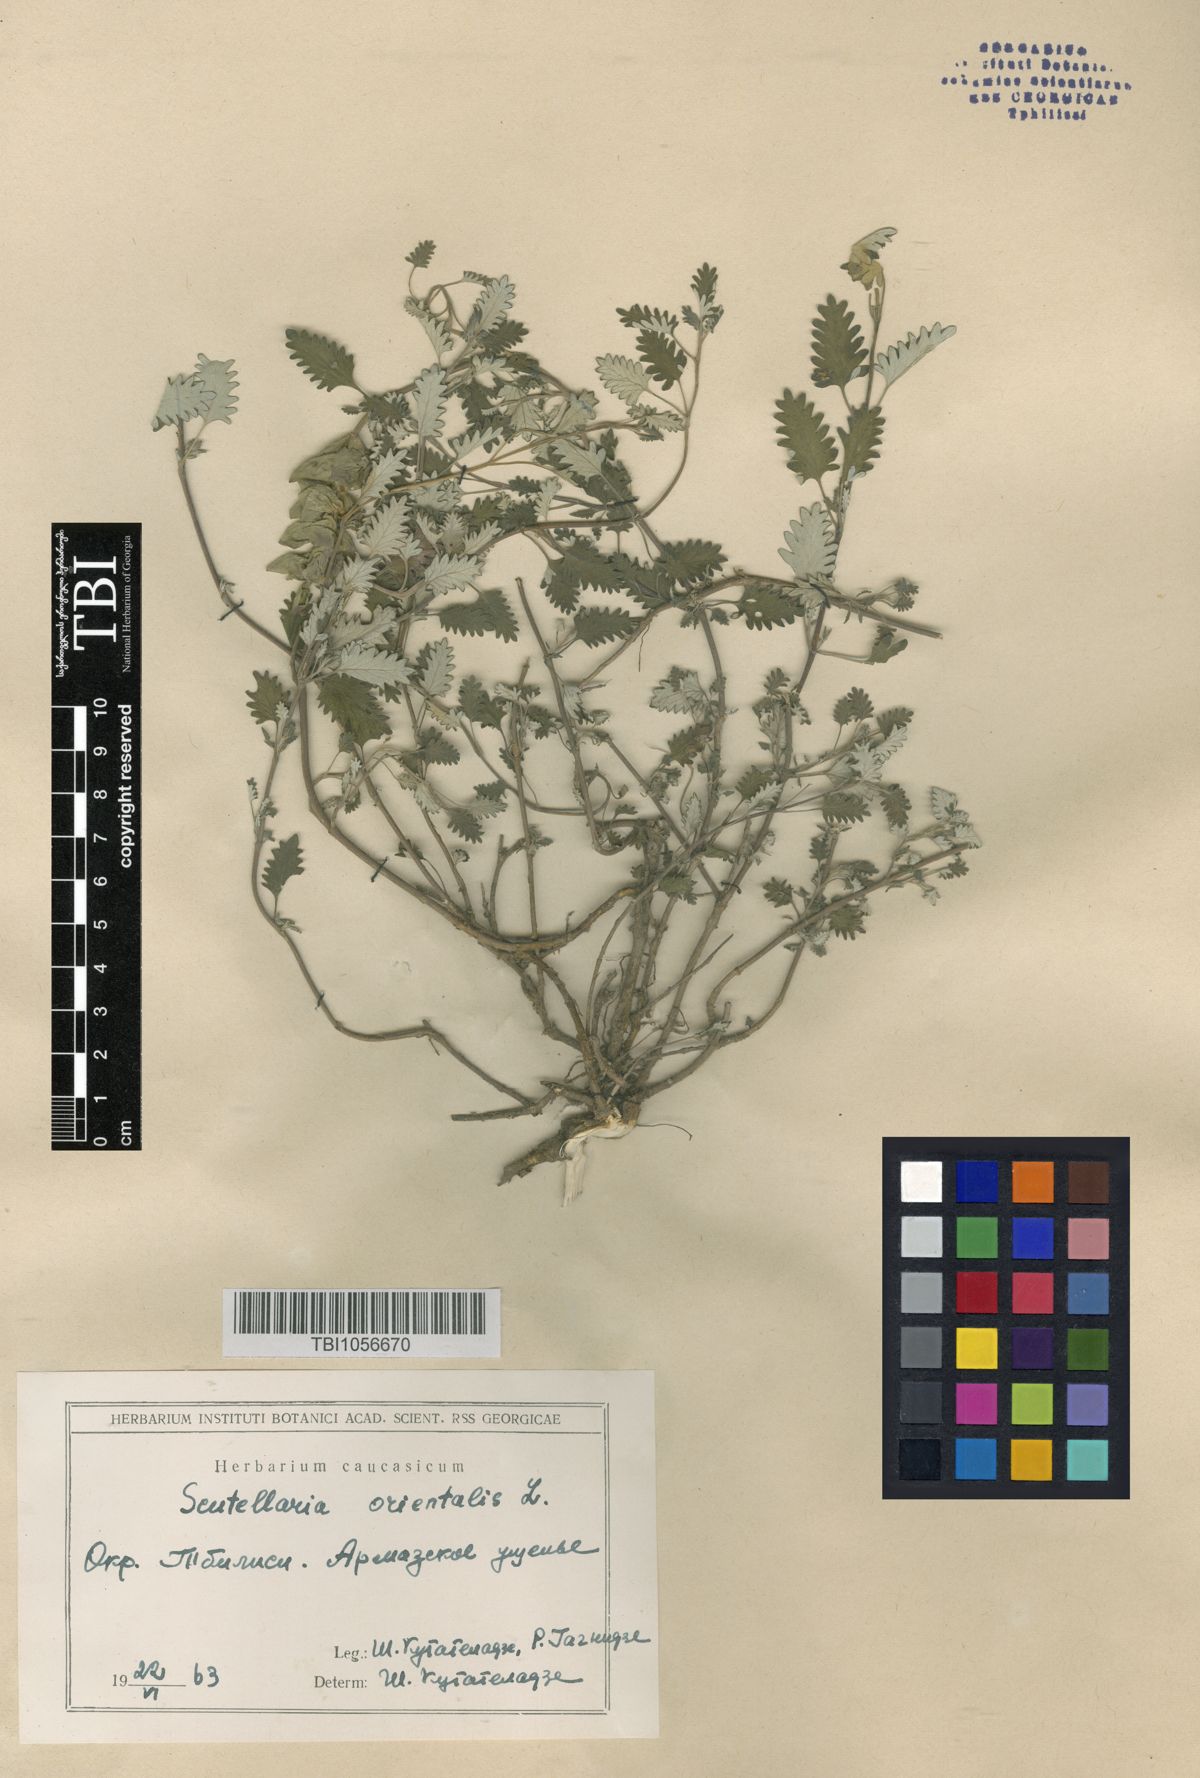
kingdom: Plantae
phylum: Tracheophyta
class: Magnoliopsida
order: Lamiales
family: Lamiaceae
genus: Scutellaria
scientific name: Scutellaria orientalis
